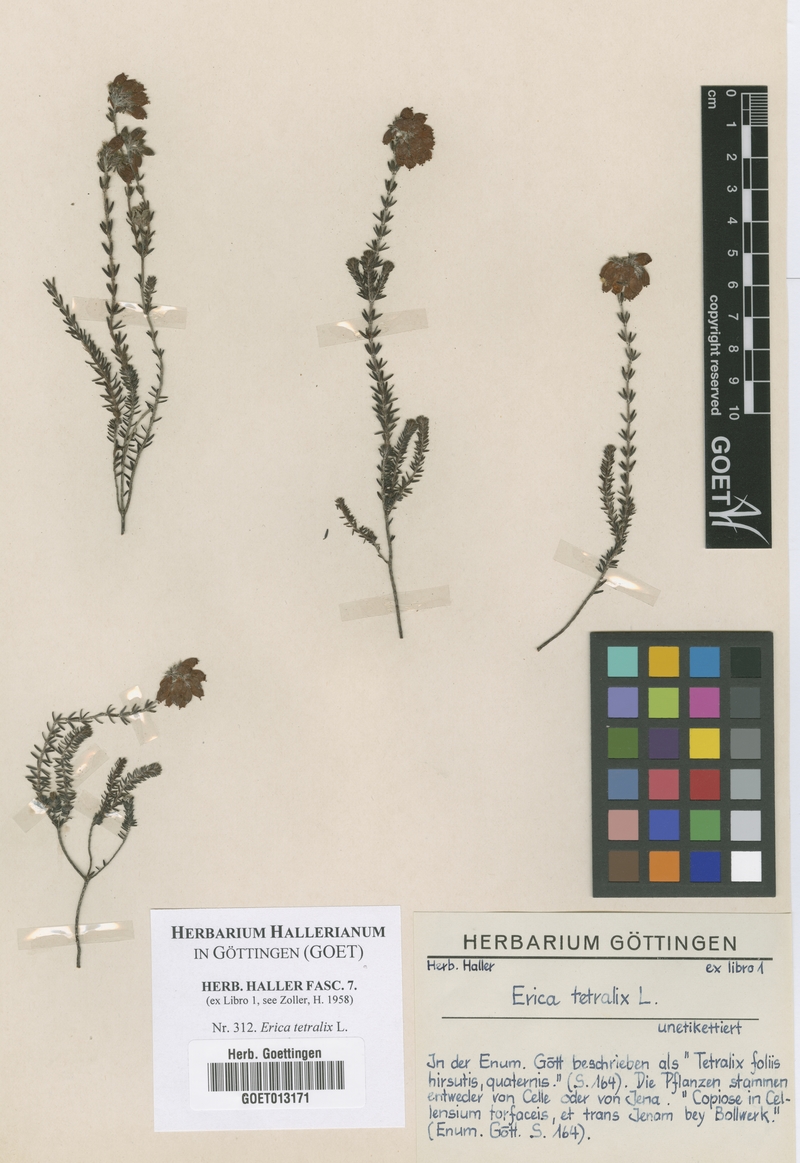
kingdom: Plantae
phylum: Tracheophyta
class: Magnoliopsida
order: Ericales
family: Ericaceae
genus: Erica
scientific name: Erica tetralix
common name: Cross-leaved heath
